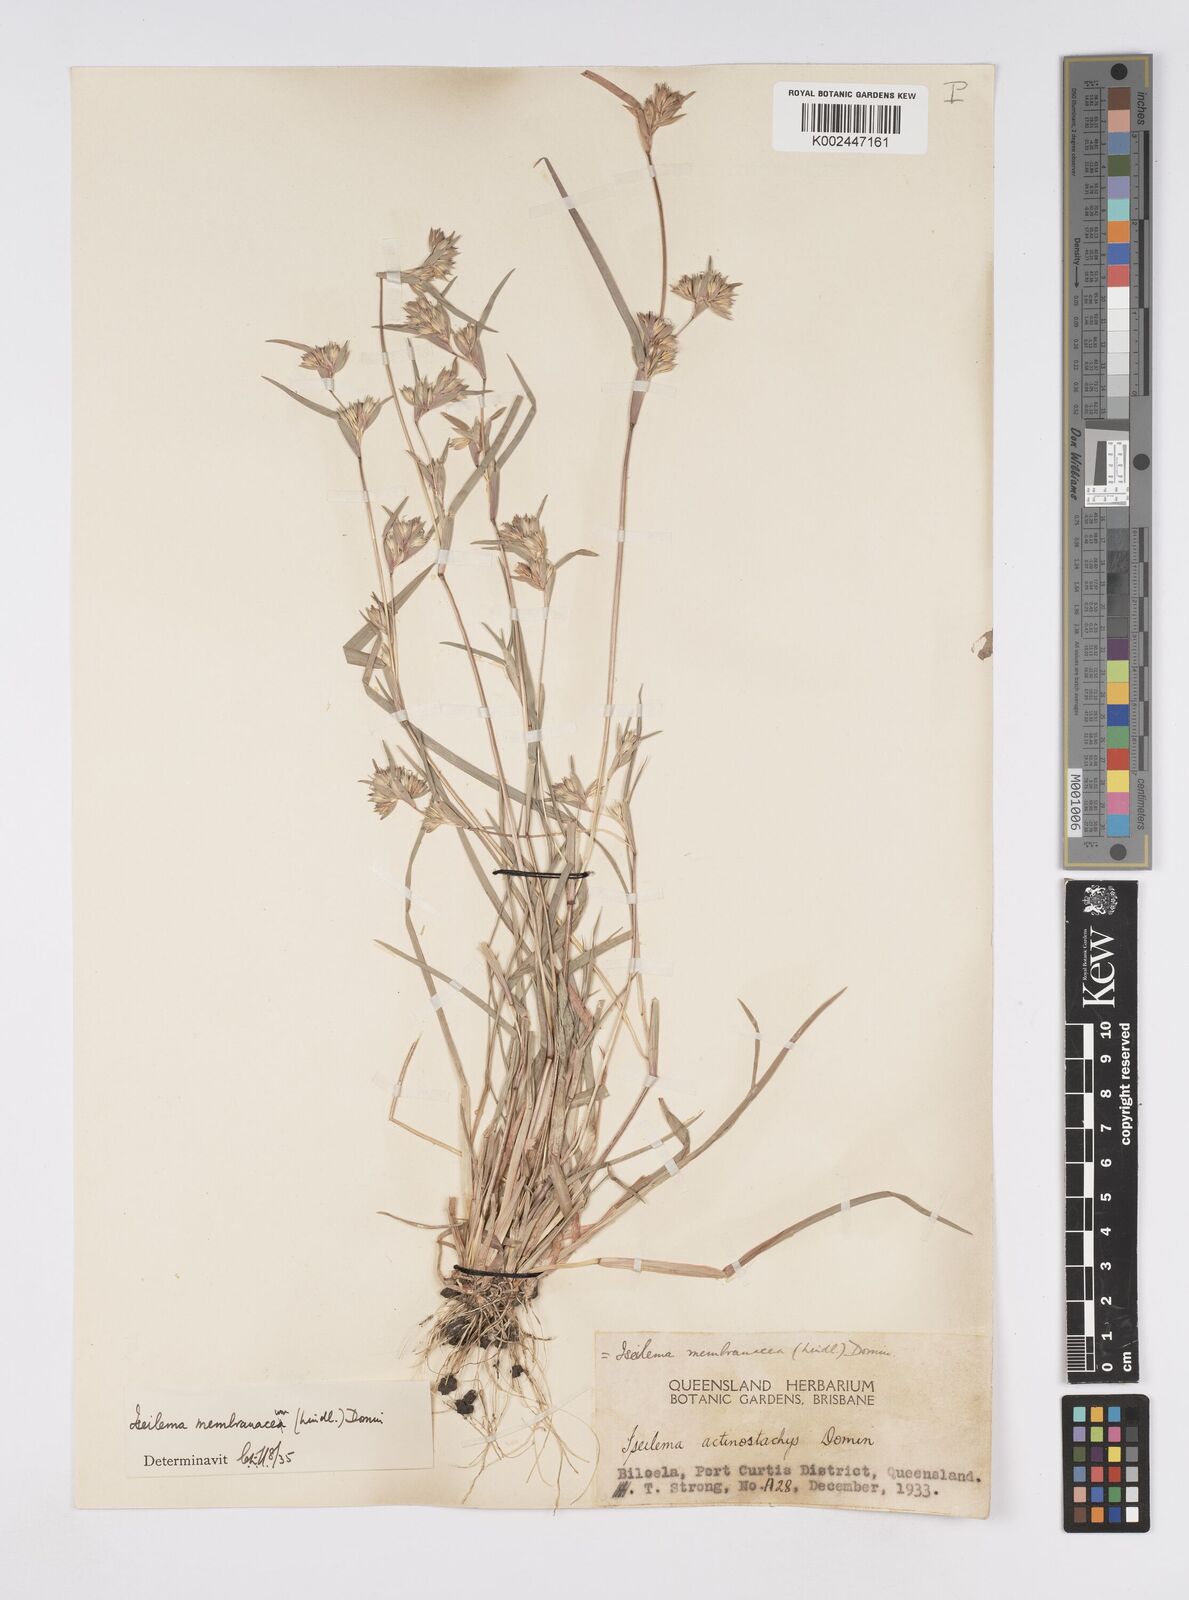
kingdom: Plantae
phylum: Tracheophyta
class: Liliopsida
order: Poales
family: Poaceae
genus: Iseilema
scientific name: Iseilema membranaceum
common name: Small flinders grass
